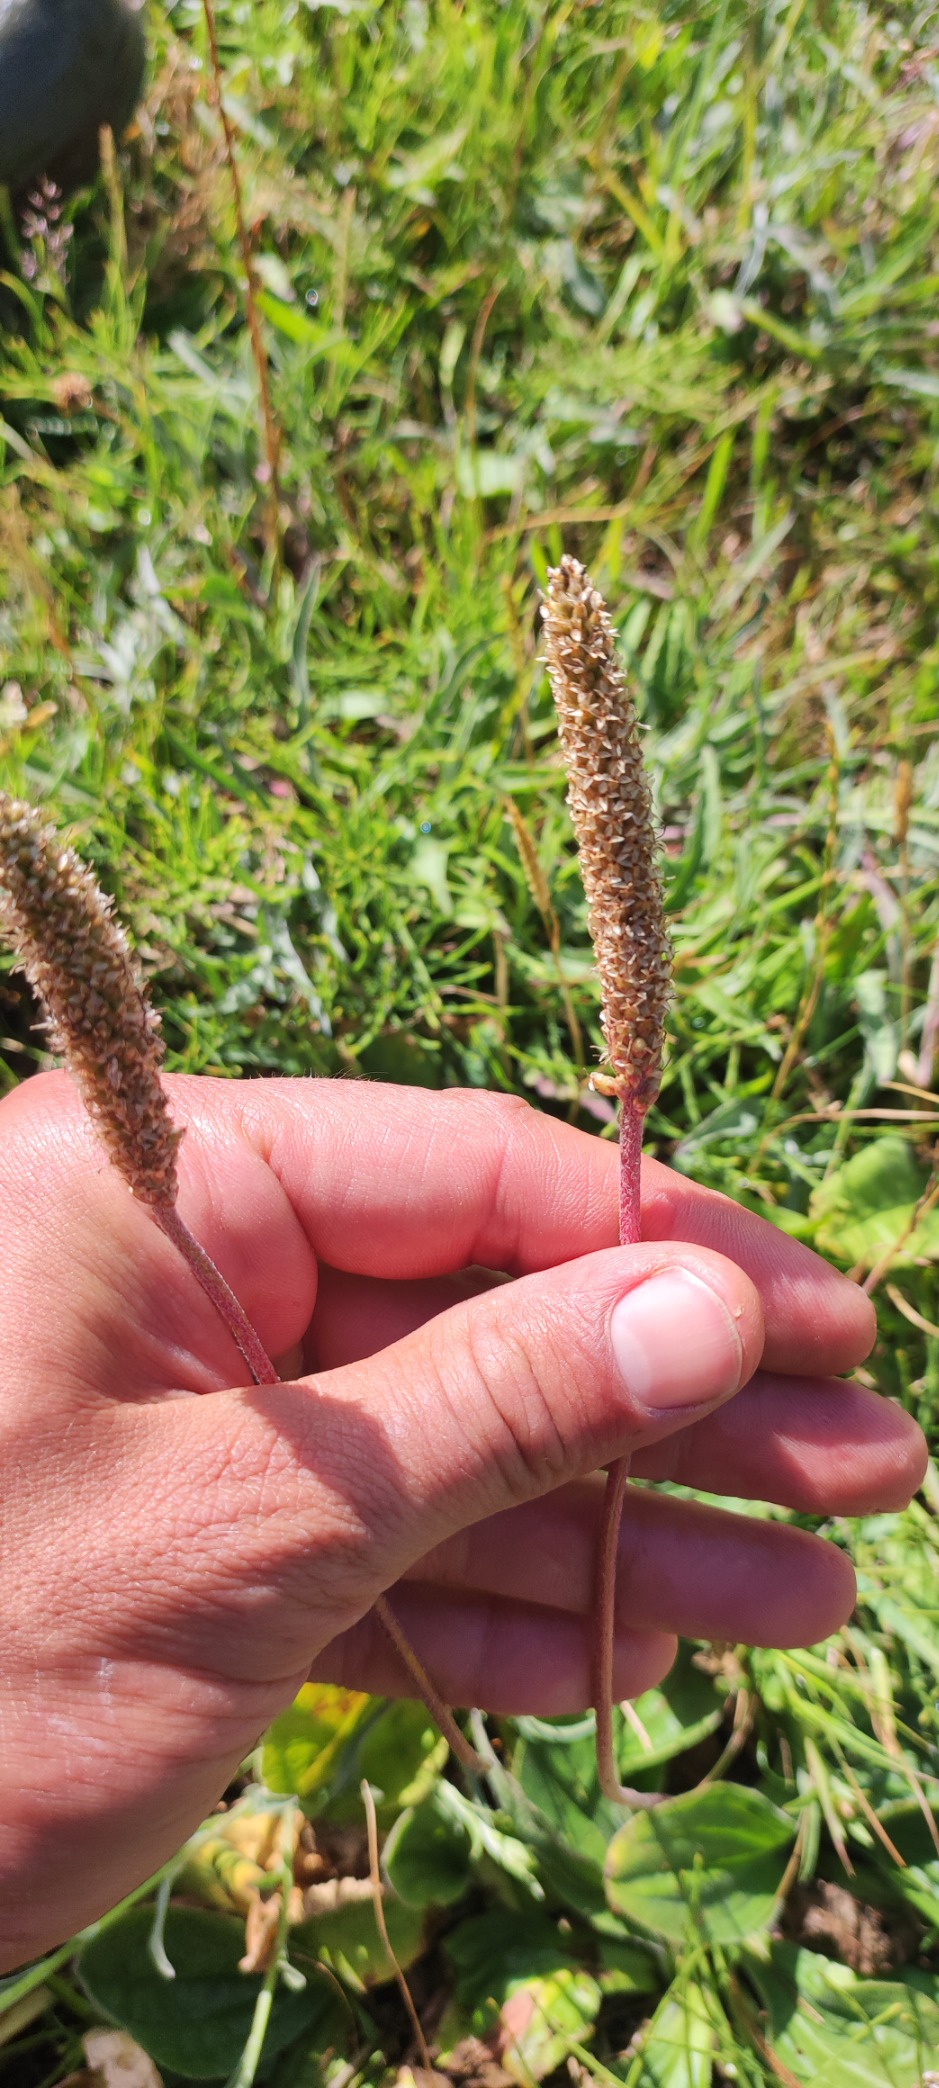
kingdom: Plantae
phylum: Tracheophyta
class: Magnoliopsida
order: Lamiales
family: Plantaginaceae
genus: Plantago
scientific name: Plantago media
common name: Dunet vejbred
